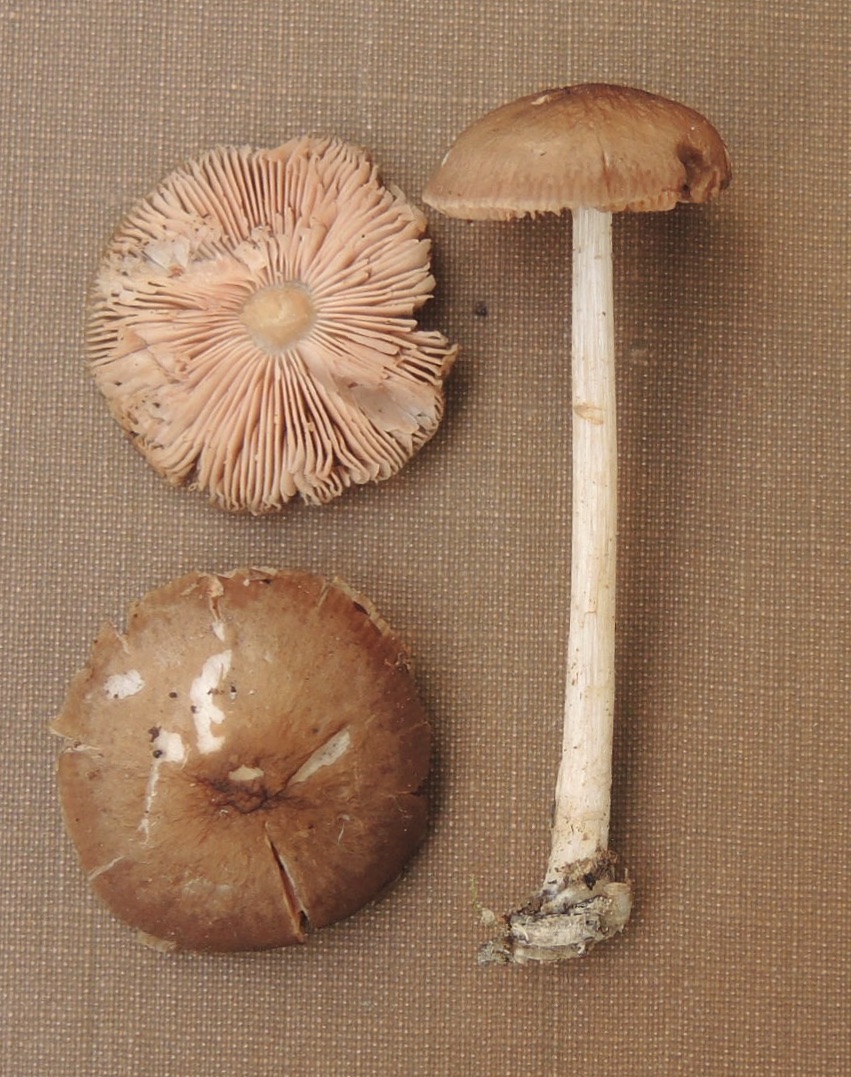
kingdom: Fungi
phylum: Basidiomycota
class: Agaricomycetes
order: Agaricales
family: Pluteaceae
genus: Pluteus
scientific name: Pluteus
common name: pudret skærmhat
